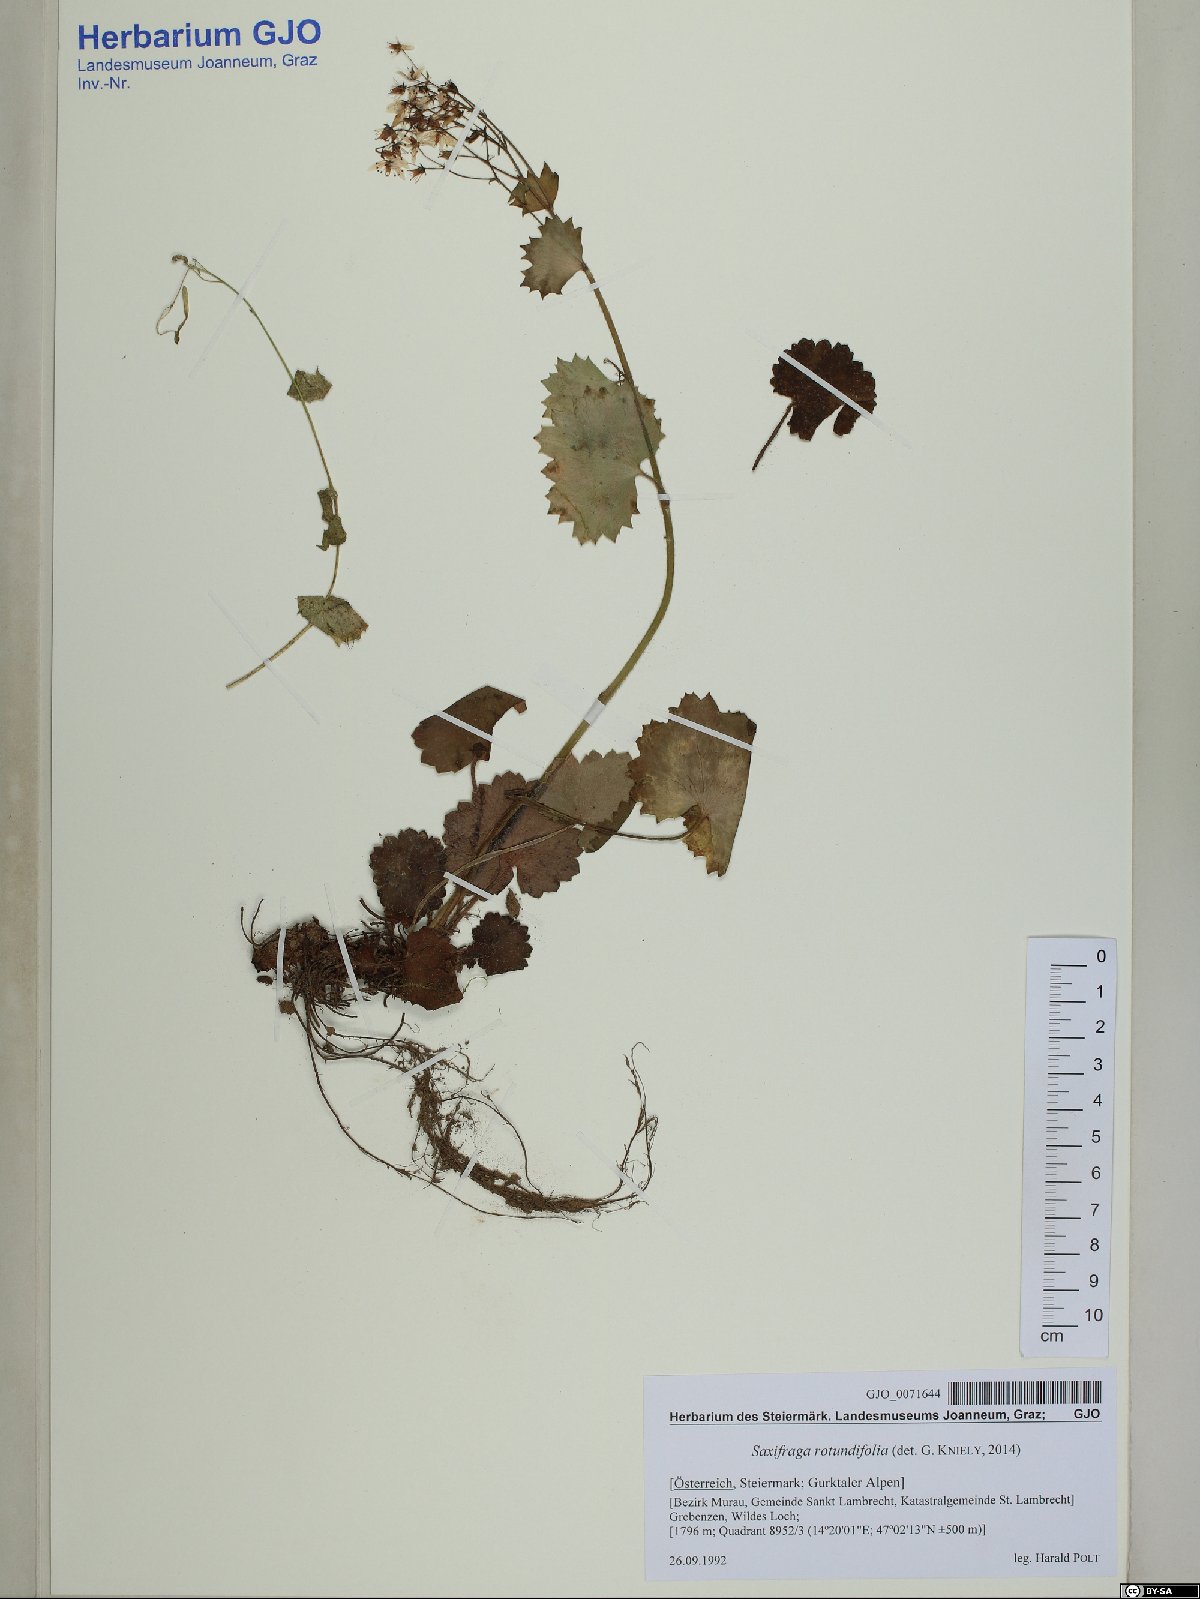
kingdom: Plantae
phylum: Tracheophyta
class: Magnoliopsida
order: Saxifragales
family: Saxifragaceae
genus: Saxifraga
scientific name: Saxifraga rotundifolia
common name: Round-leaved saxifrage
